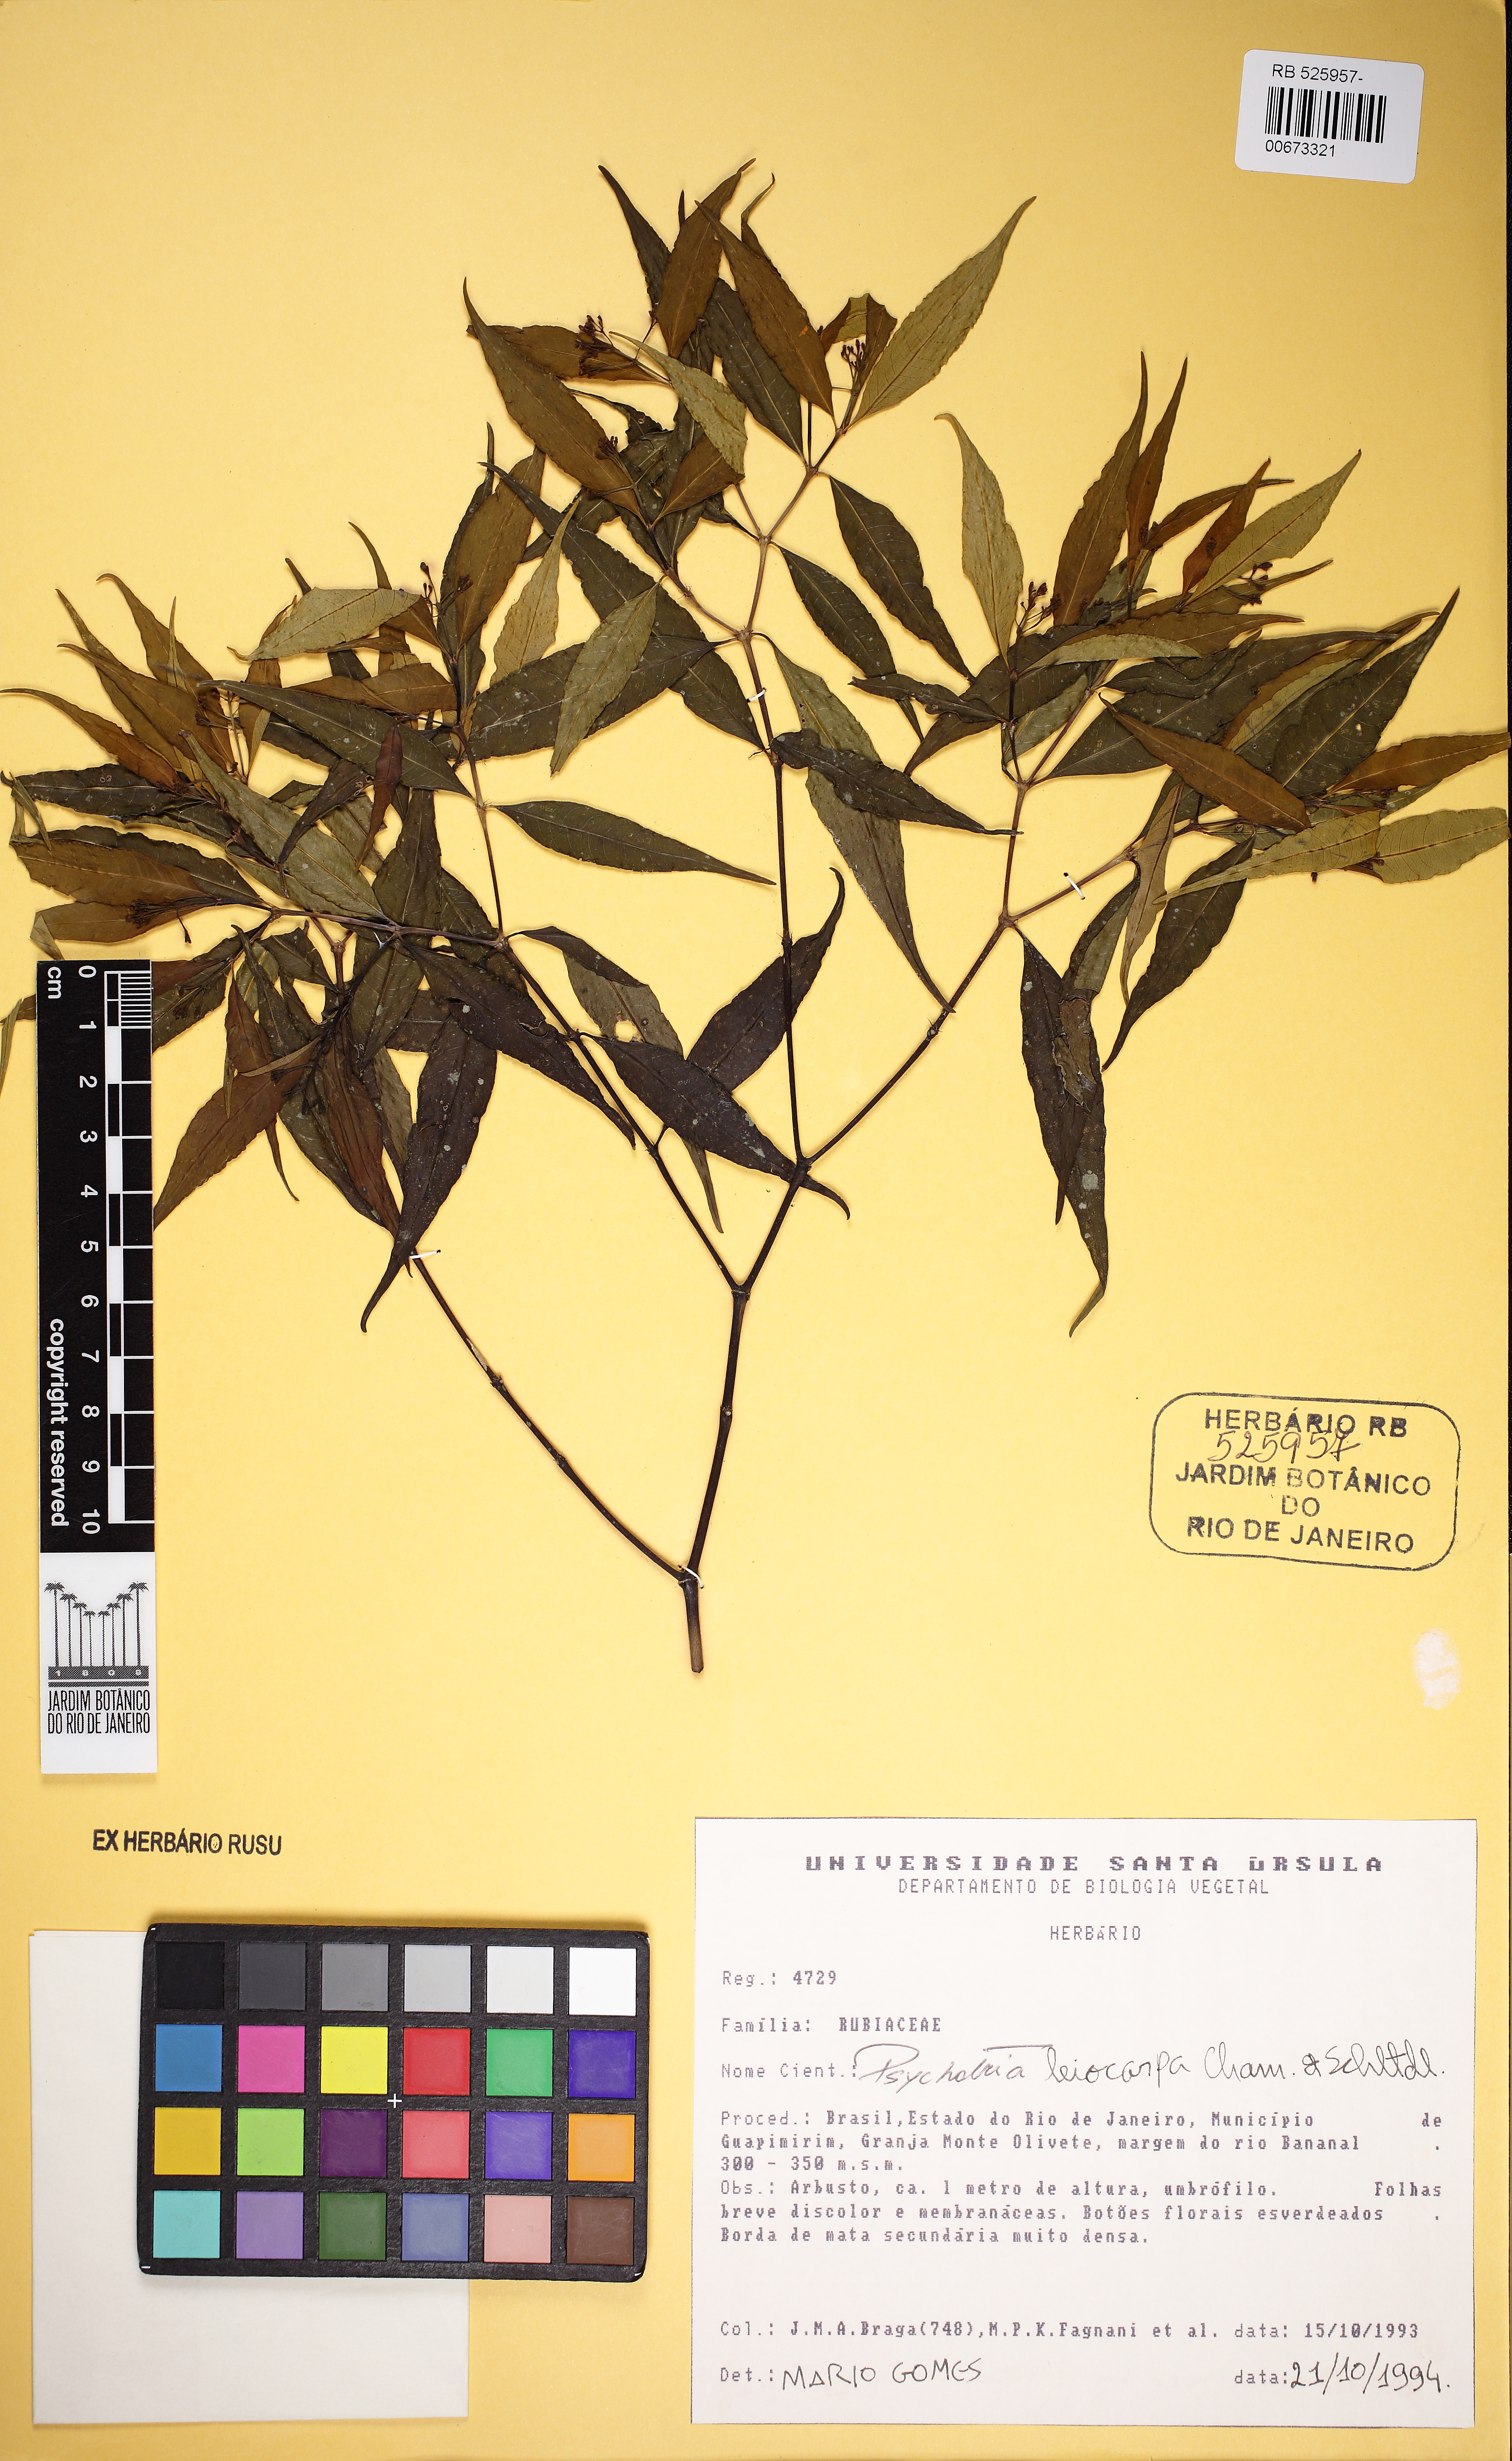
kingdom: Plantae
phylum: Tracheophyta
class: Magnoliopsida
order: Gentianales
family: Rubiaceae
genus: Psychotria
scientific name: Psychotria leiocarpa
